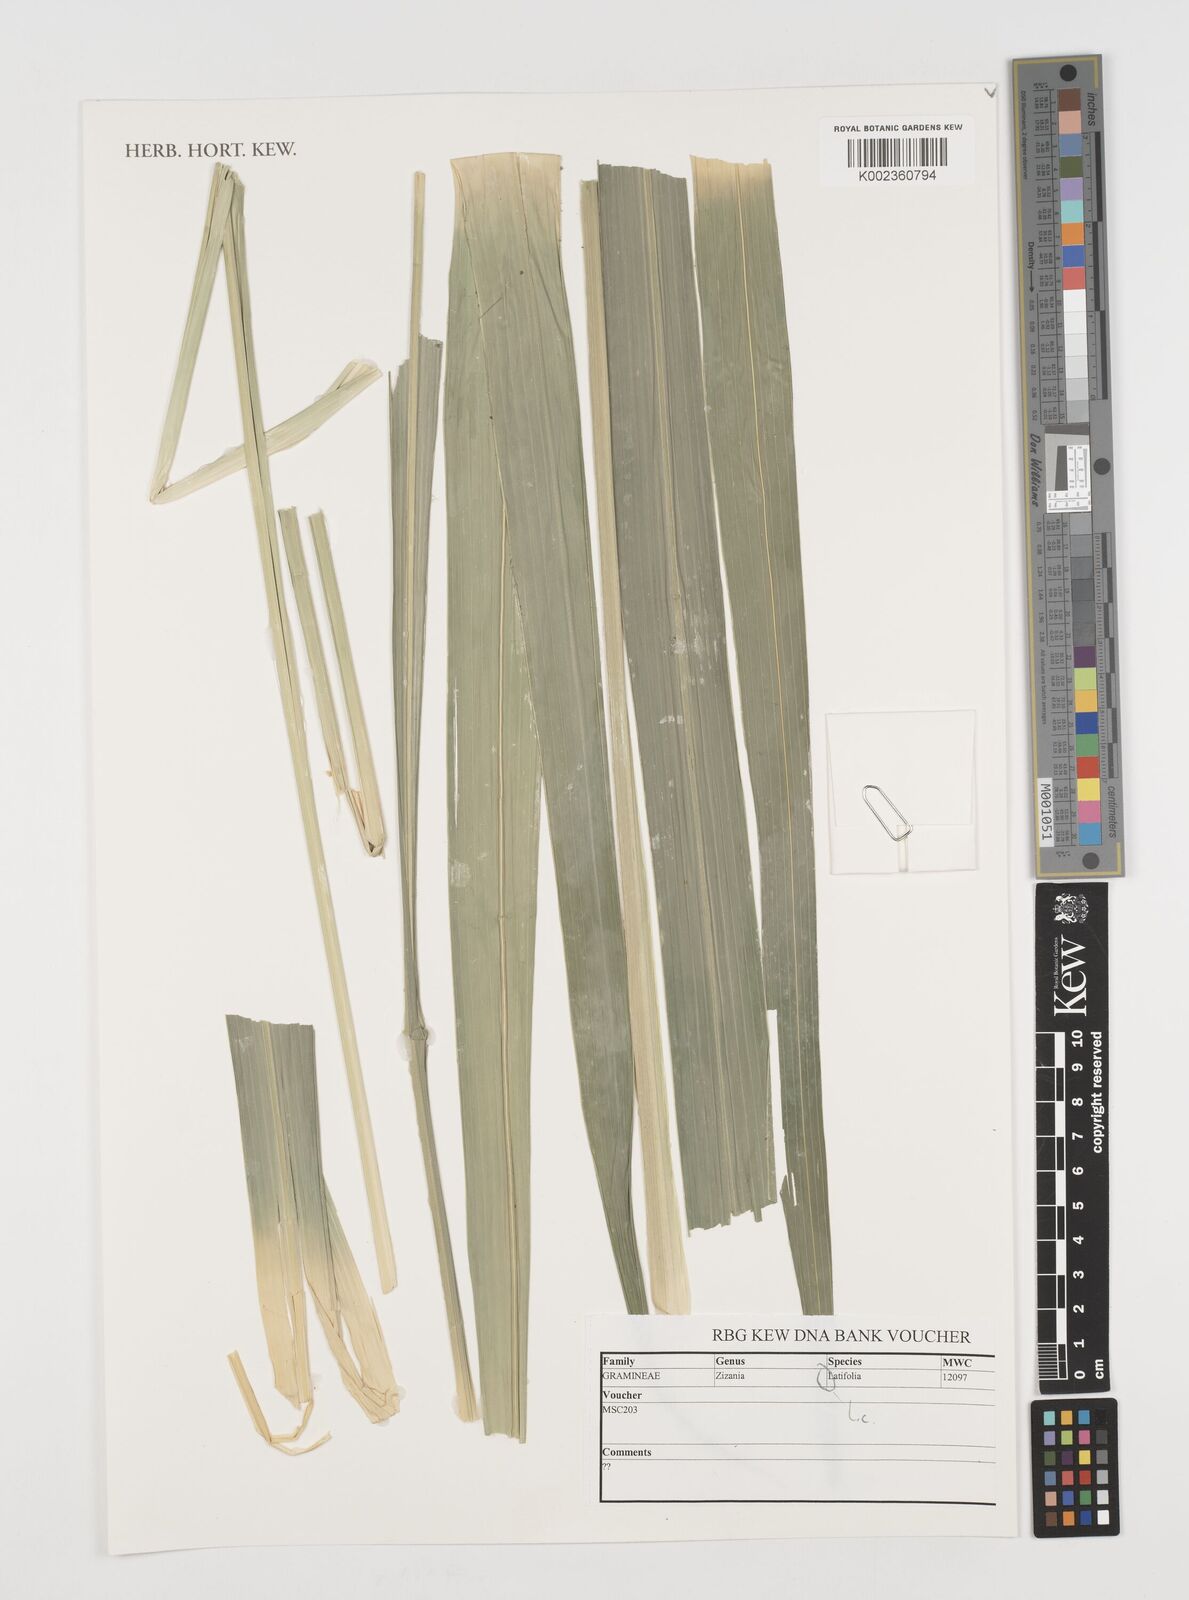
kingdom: Plantae
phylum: Tracheophyta
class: Liliopsida
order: Poales
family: Poaceae
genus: Zizania
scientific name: Zizania latifolia
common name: Manchurian wildrice
